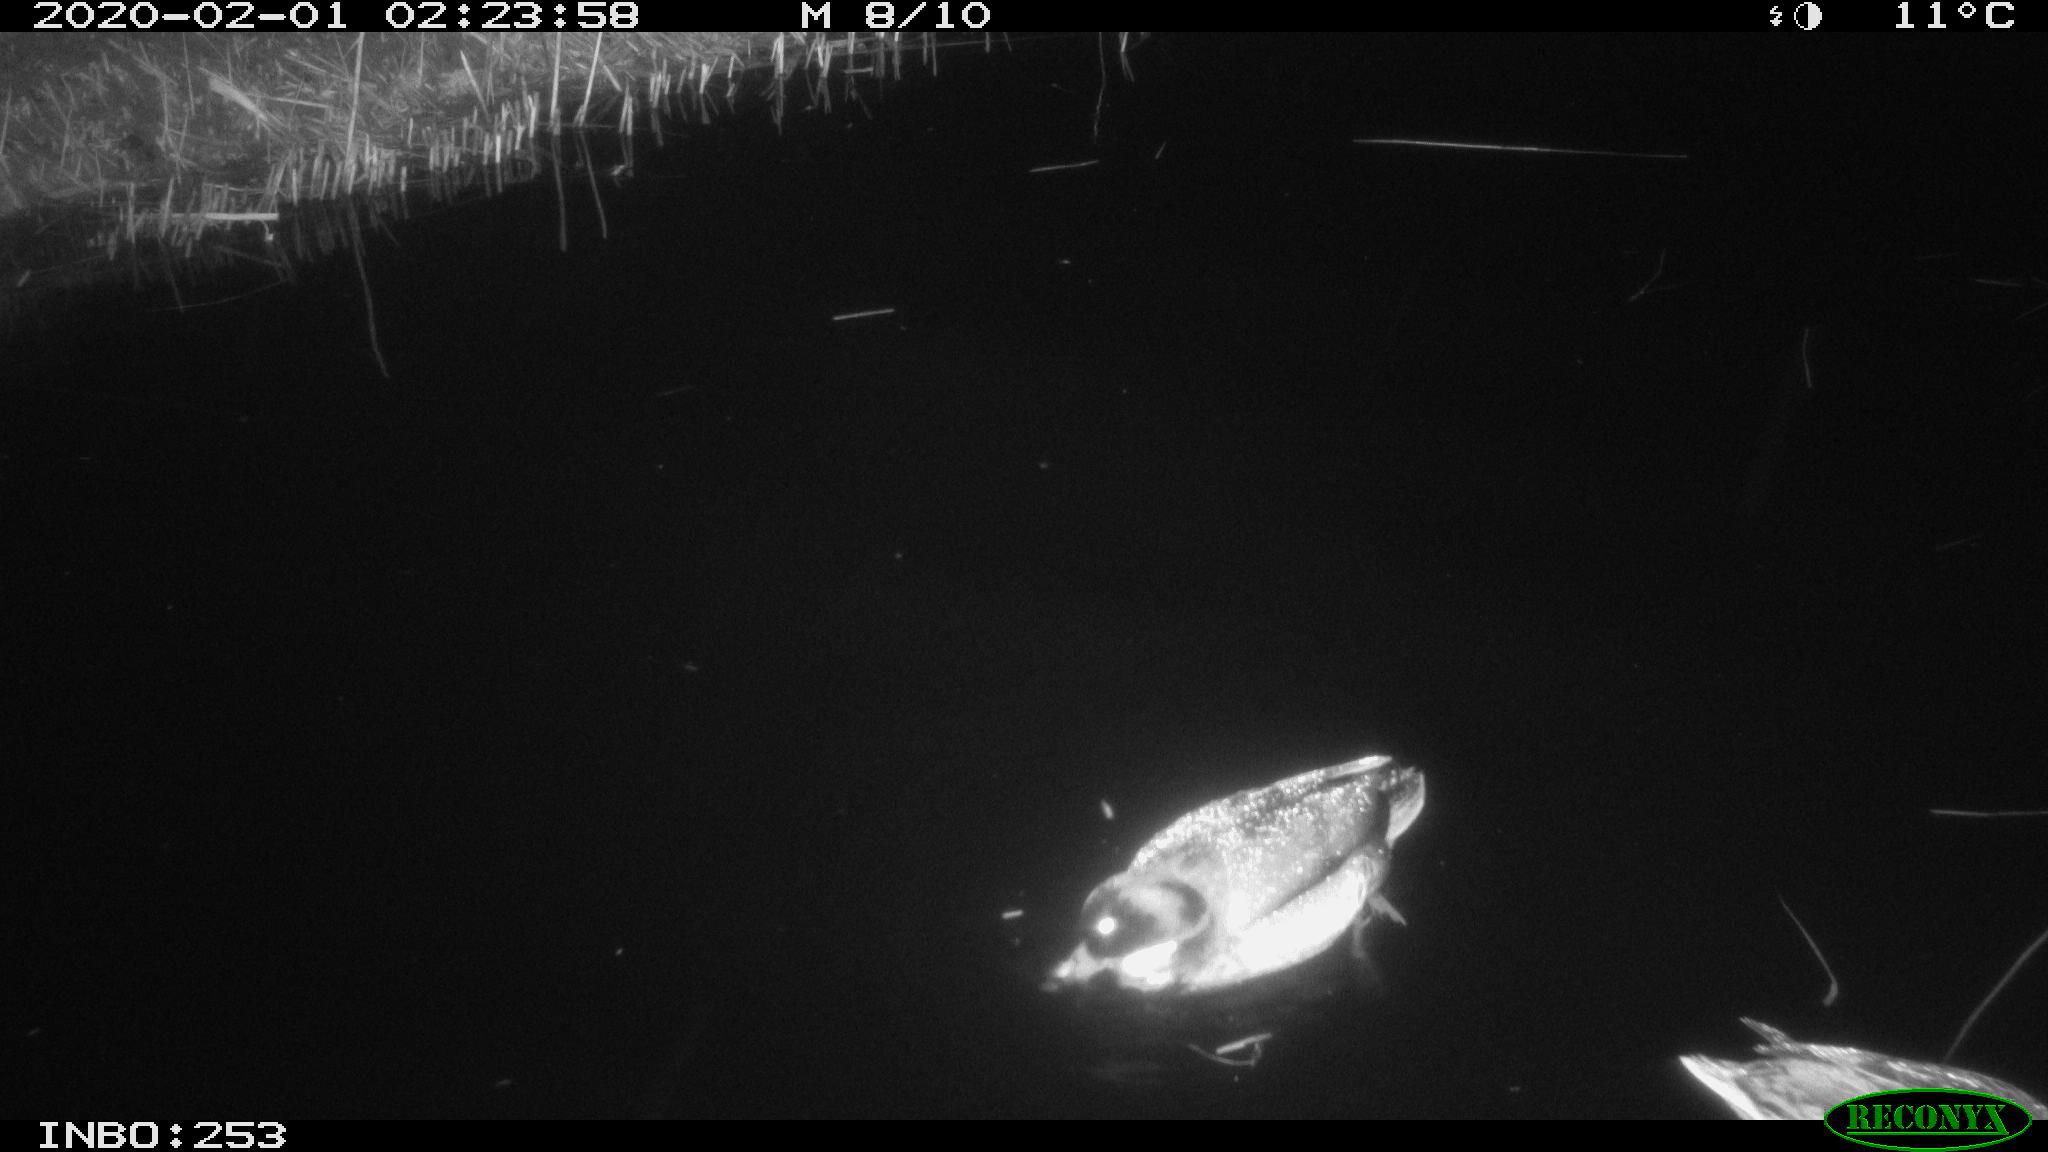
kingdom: Animalia
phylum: Chordata
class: Aves
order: Anseriformes
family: Anatidae
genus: Anas
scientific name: Anas platyrhynchos
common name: Mallard
